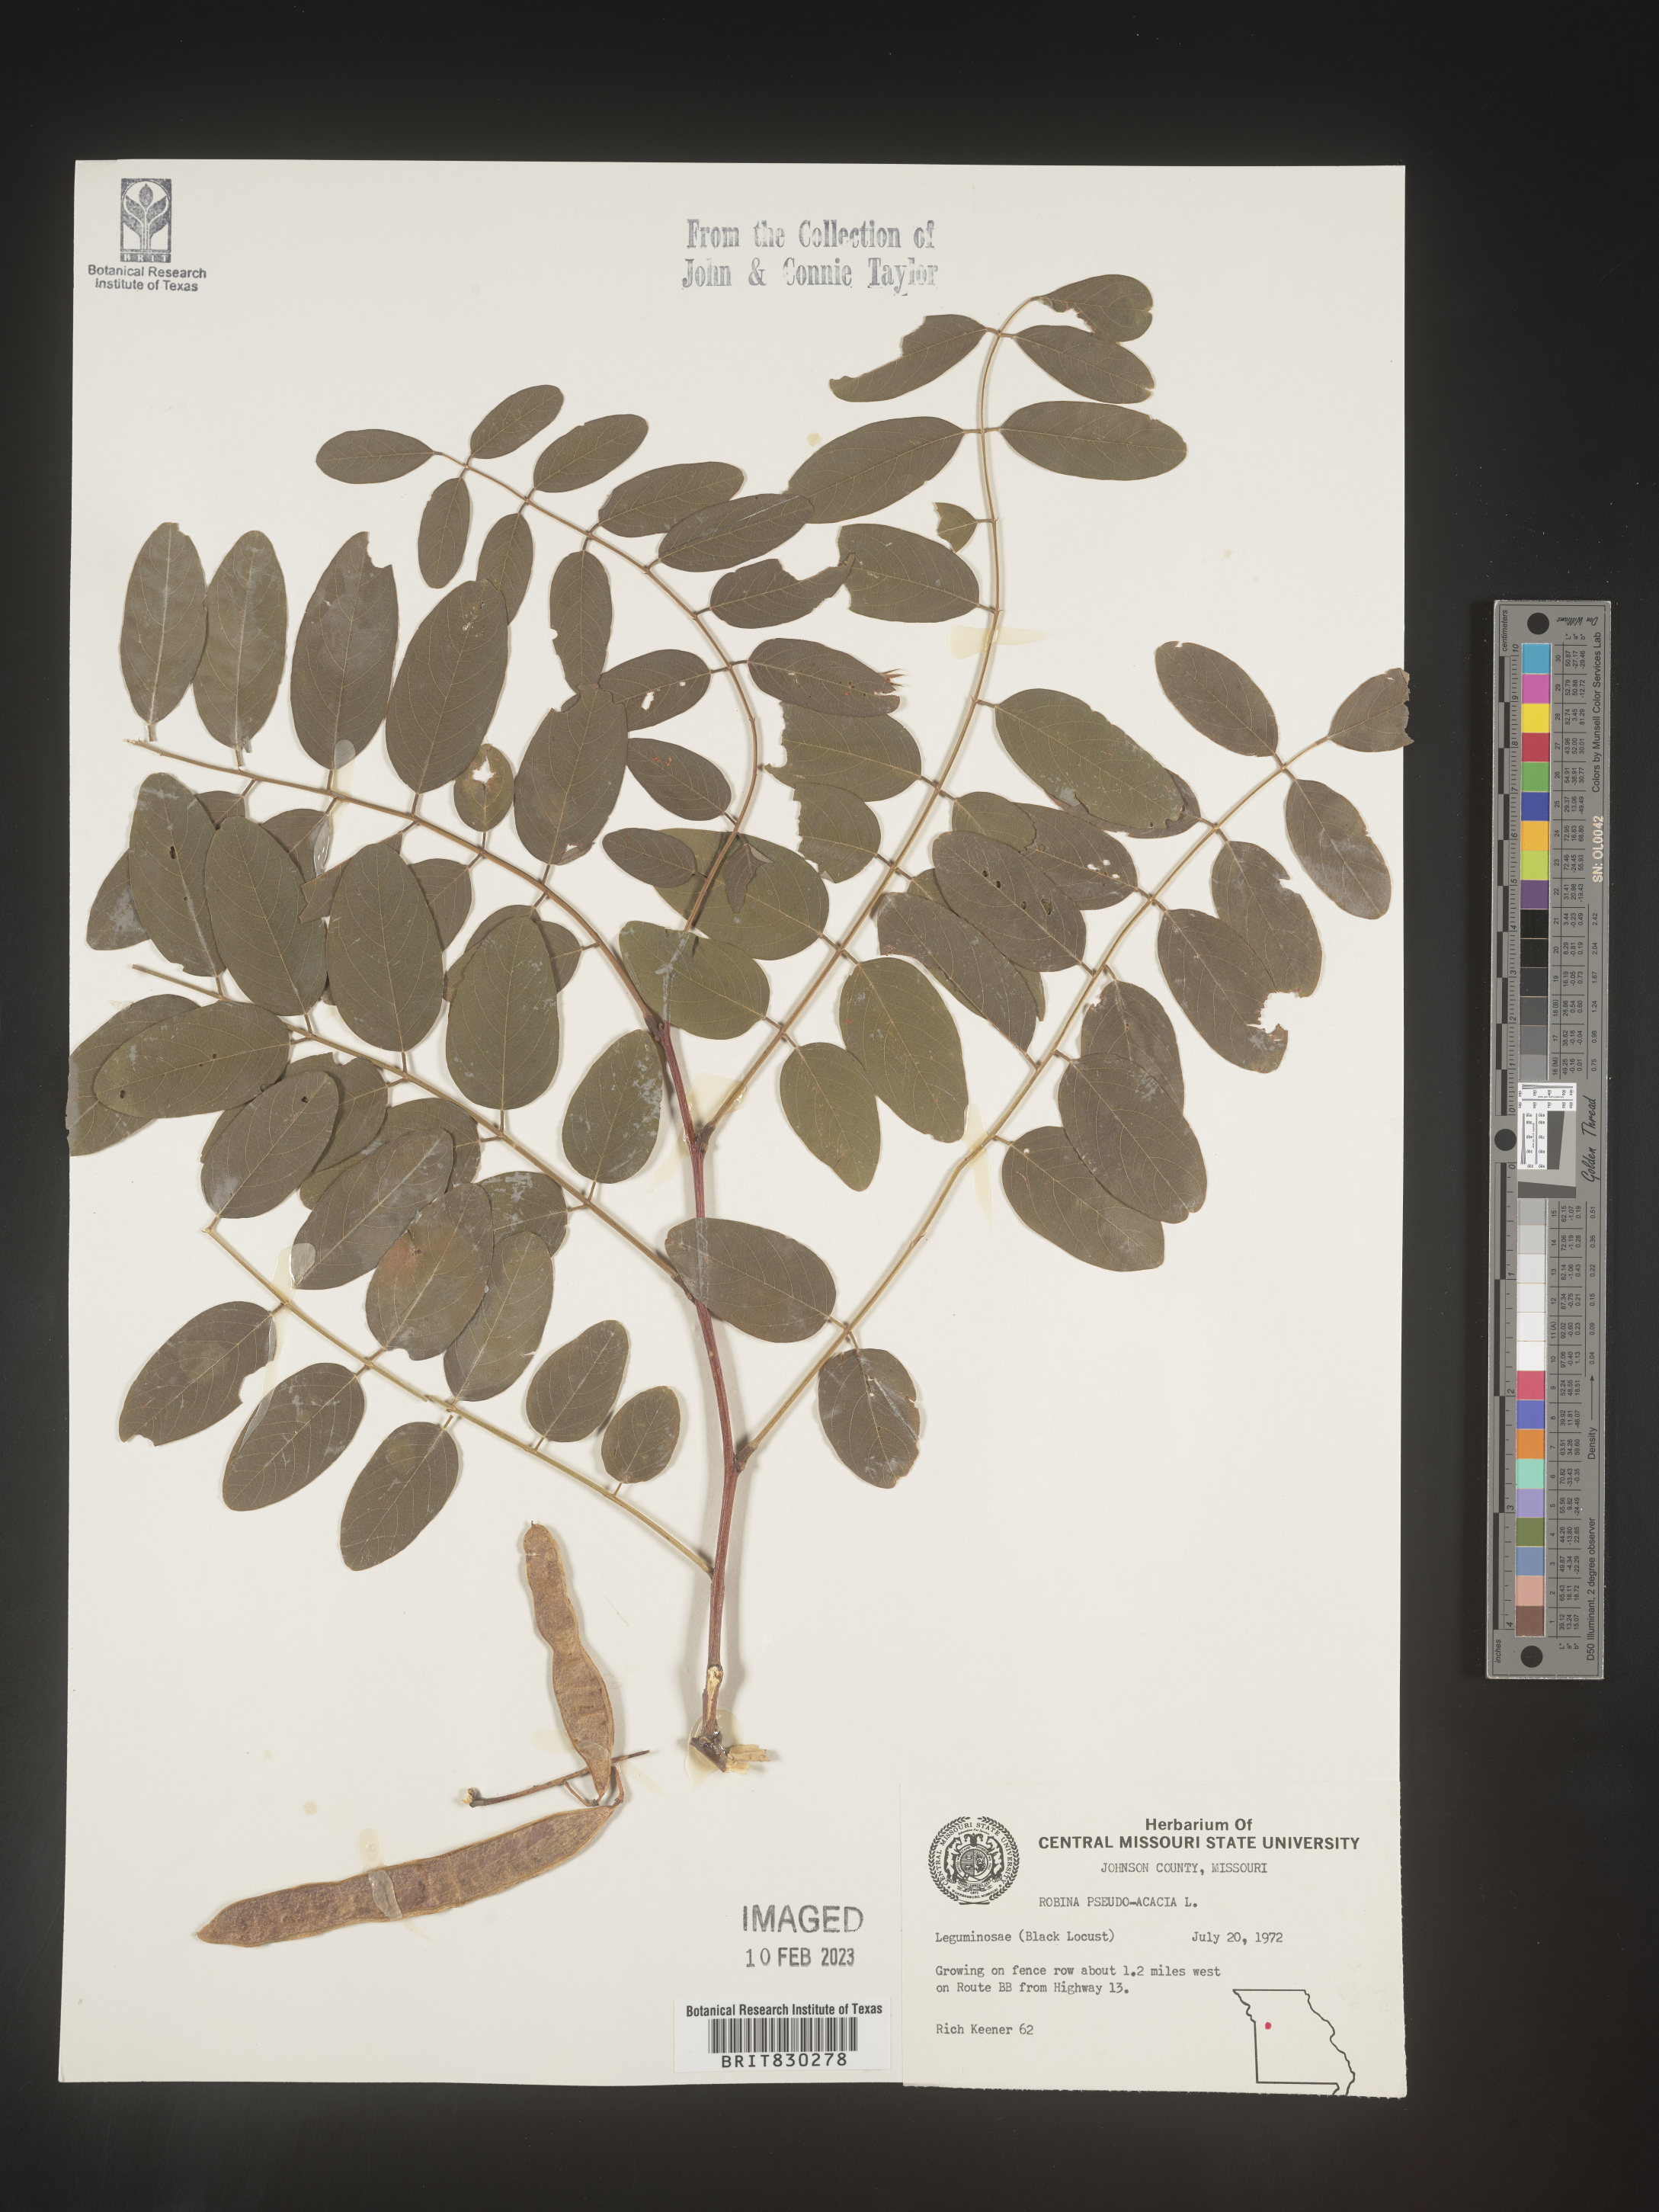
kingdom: Plantae
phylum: Tracheophyta
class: Magnoliopsida
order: Fabales
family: Fabaceae
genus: Robinia
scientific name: Robinia pseudoacacia
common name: Black locust
